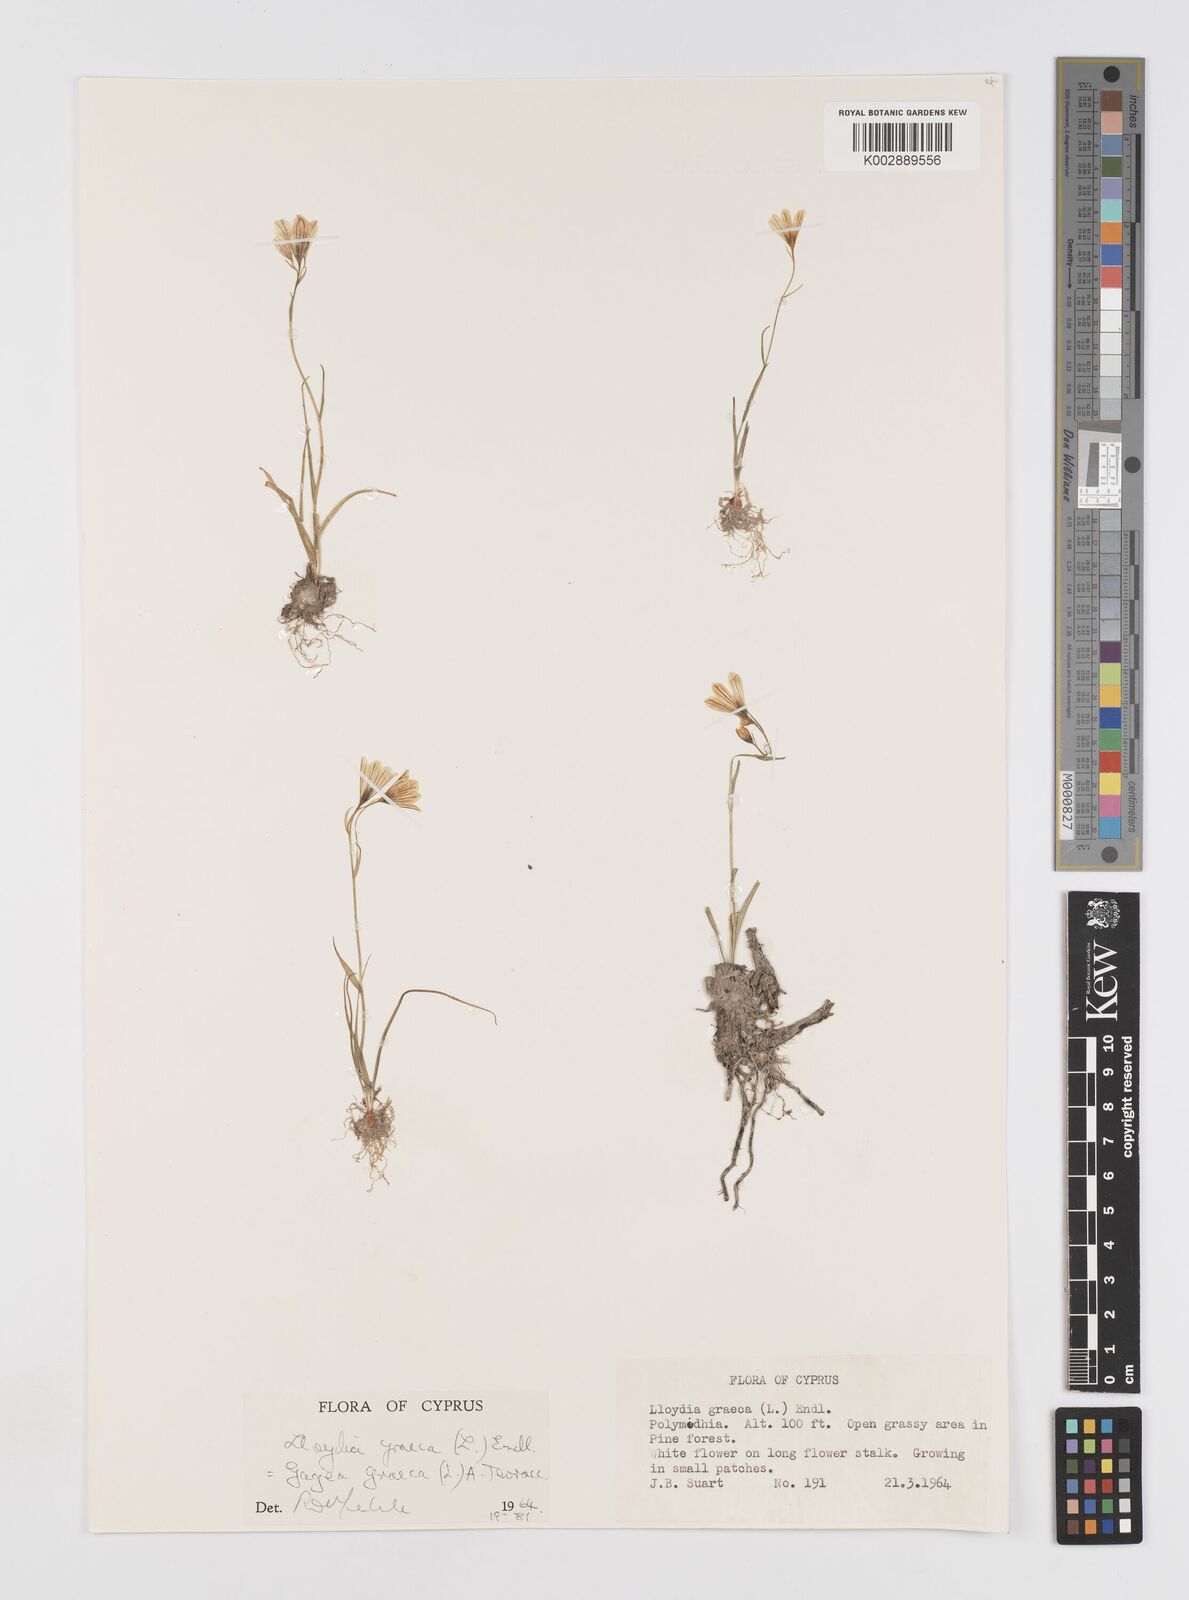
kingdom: Plantae
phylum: Tracheophyta
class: Liliopsida
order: Liliales
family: Liliaceae
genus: Gagea
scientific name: Gagea graeca
